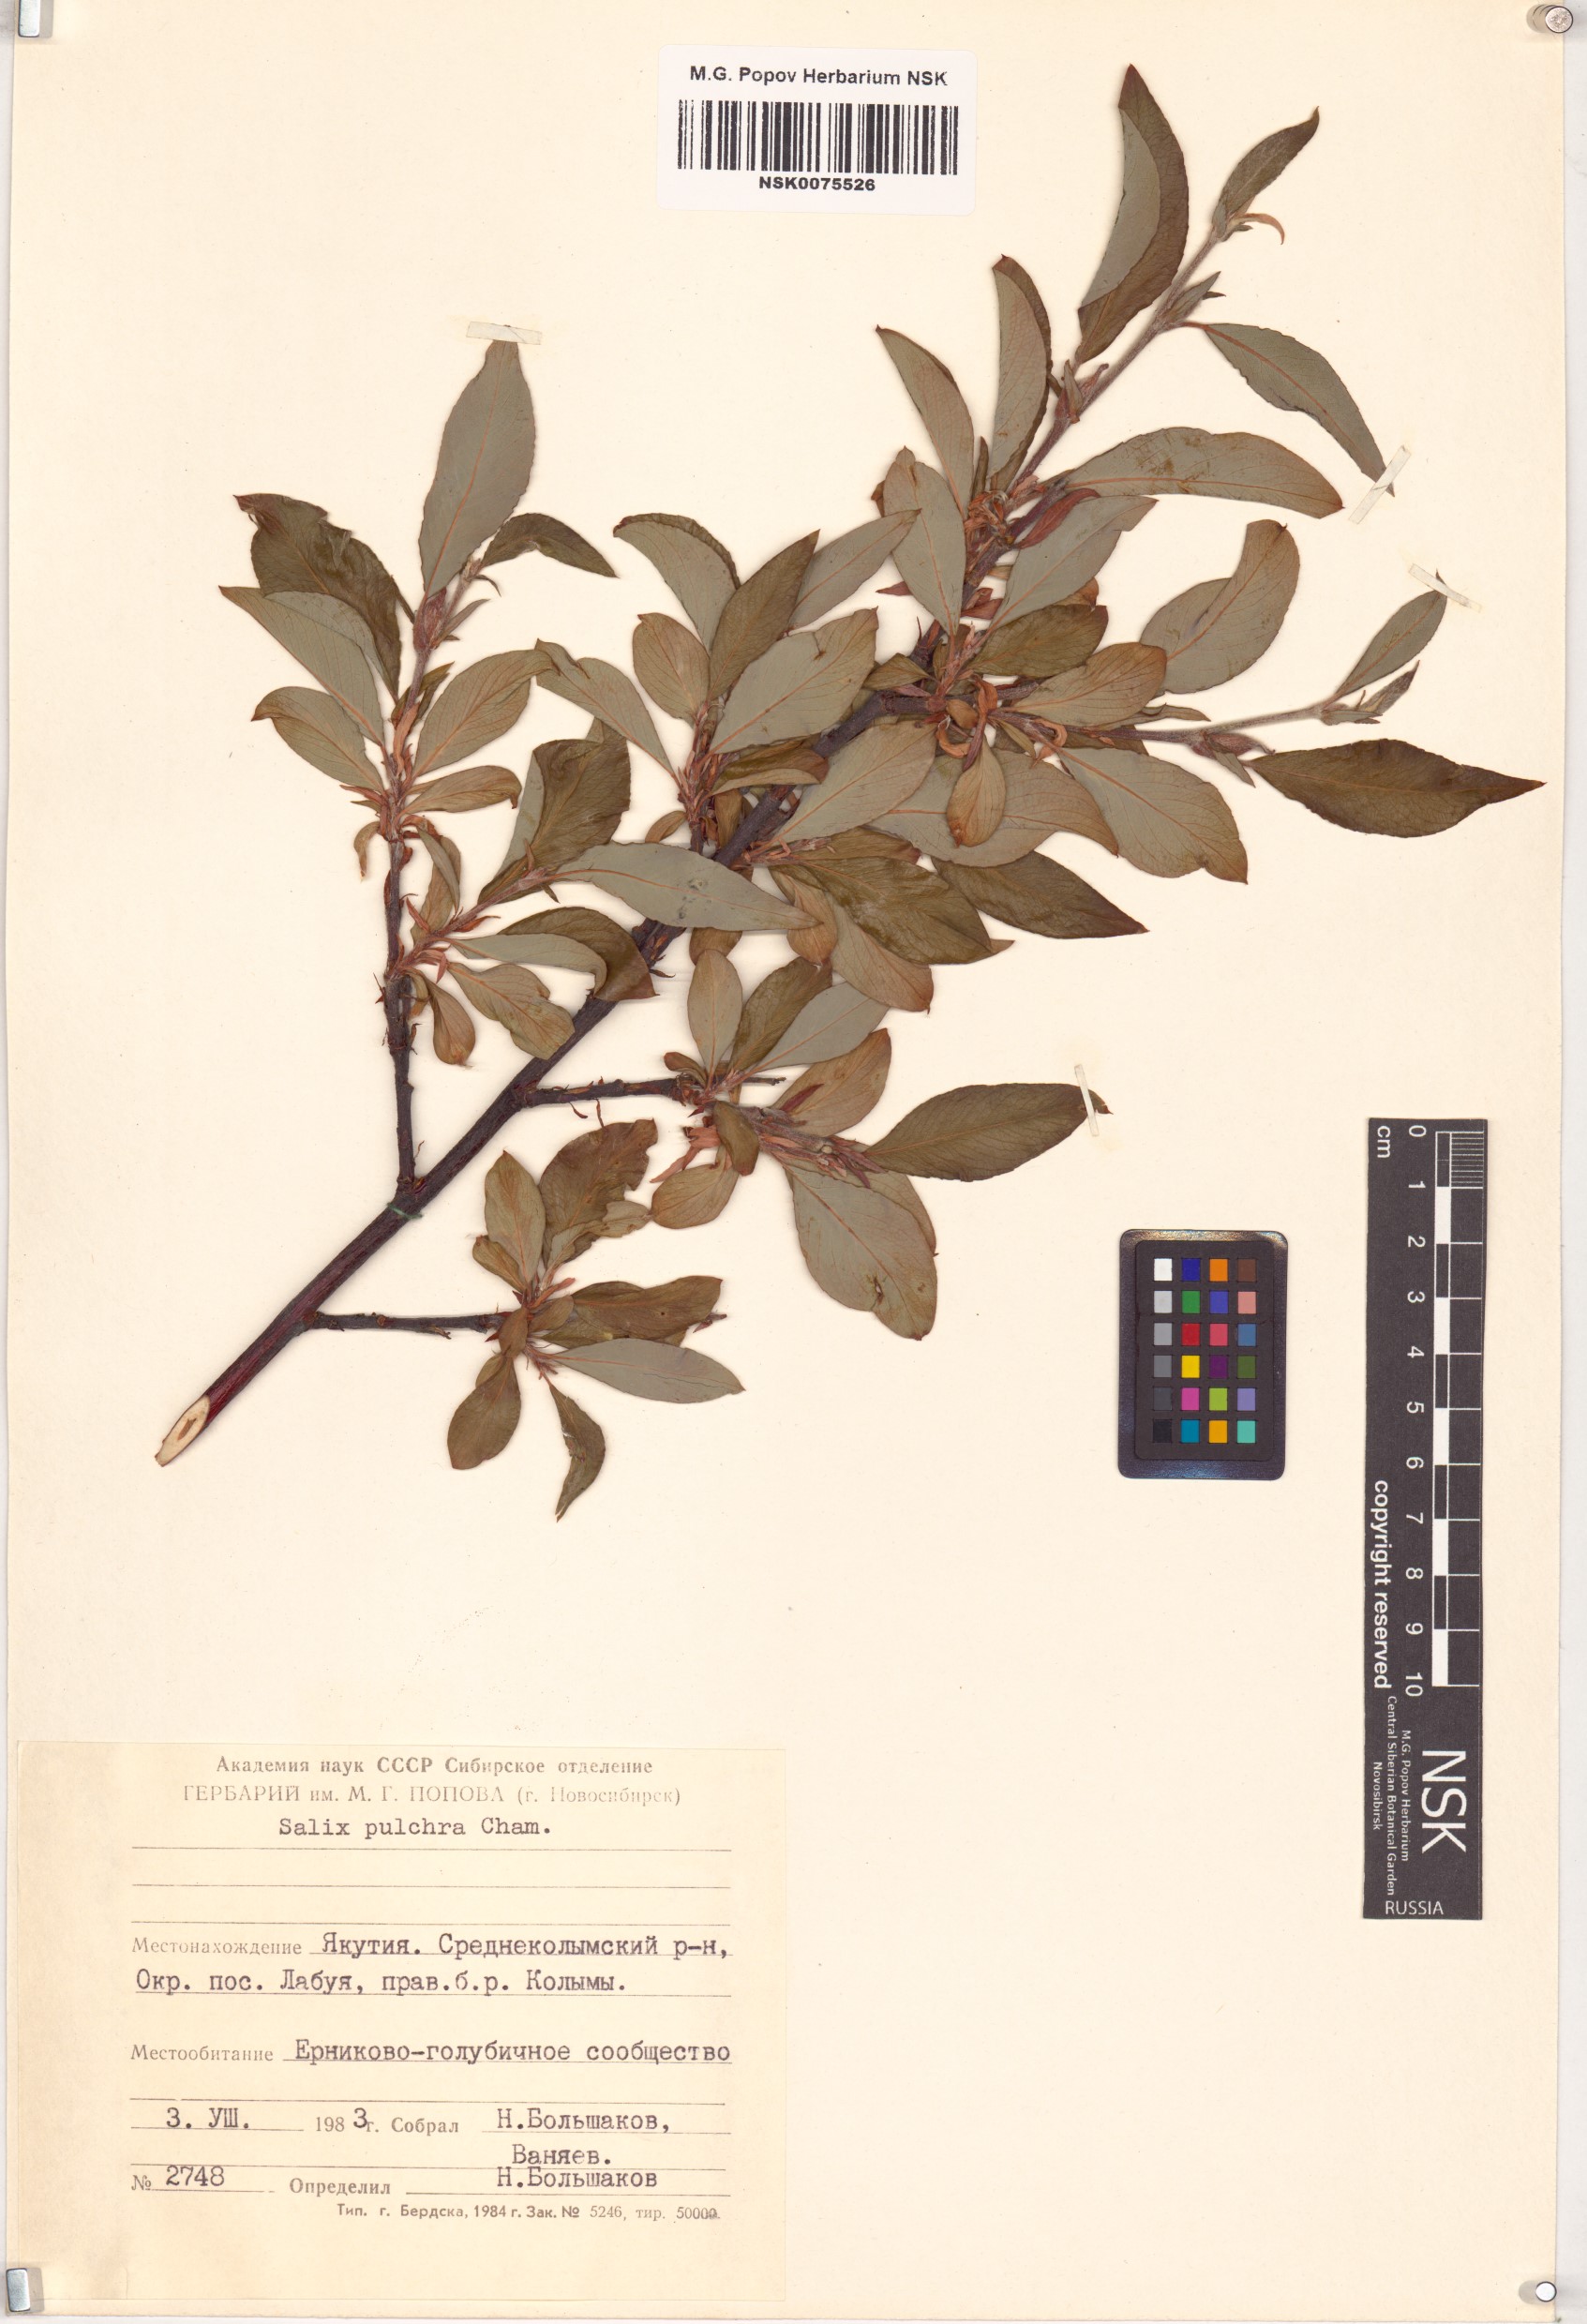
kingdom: Plantae
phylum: Tracheophyta
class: Magnoliopsida
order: Malpighiales
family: Salicaceae
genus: Salix
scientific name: Salix pulchra
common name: Diamond-leaved willow
